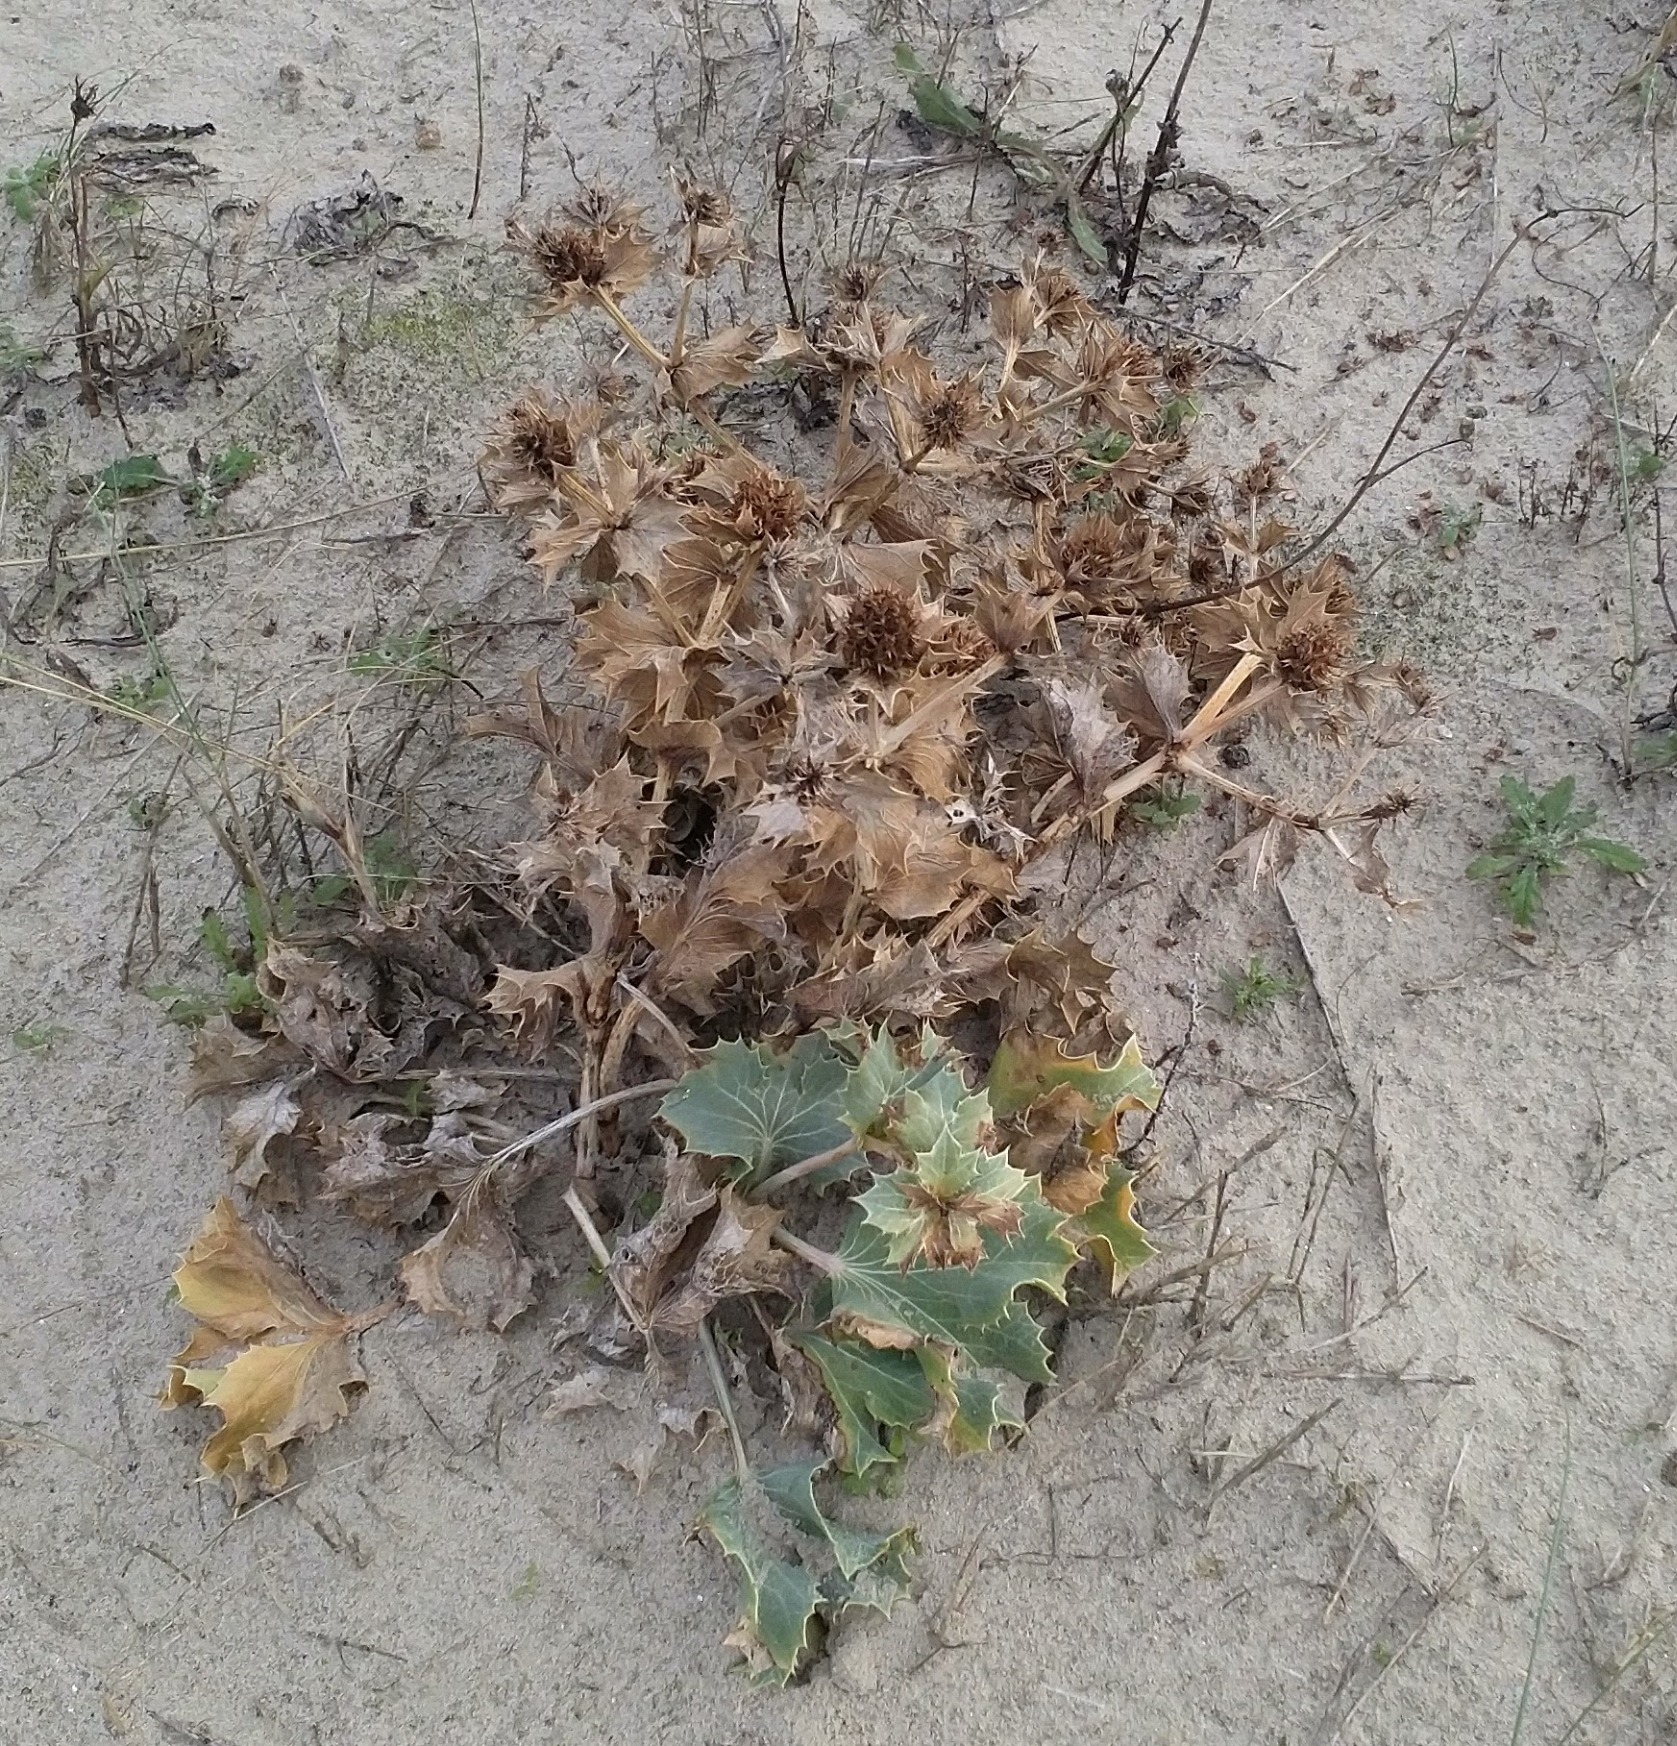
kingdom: Plantae
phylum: Tracheophyta
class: Magnoliopsida
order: Apiales
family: Apiaceae
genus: Eryngium
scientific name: Eryngium maritimum
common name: Strand-mandstro
